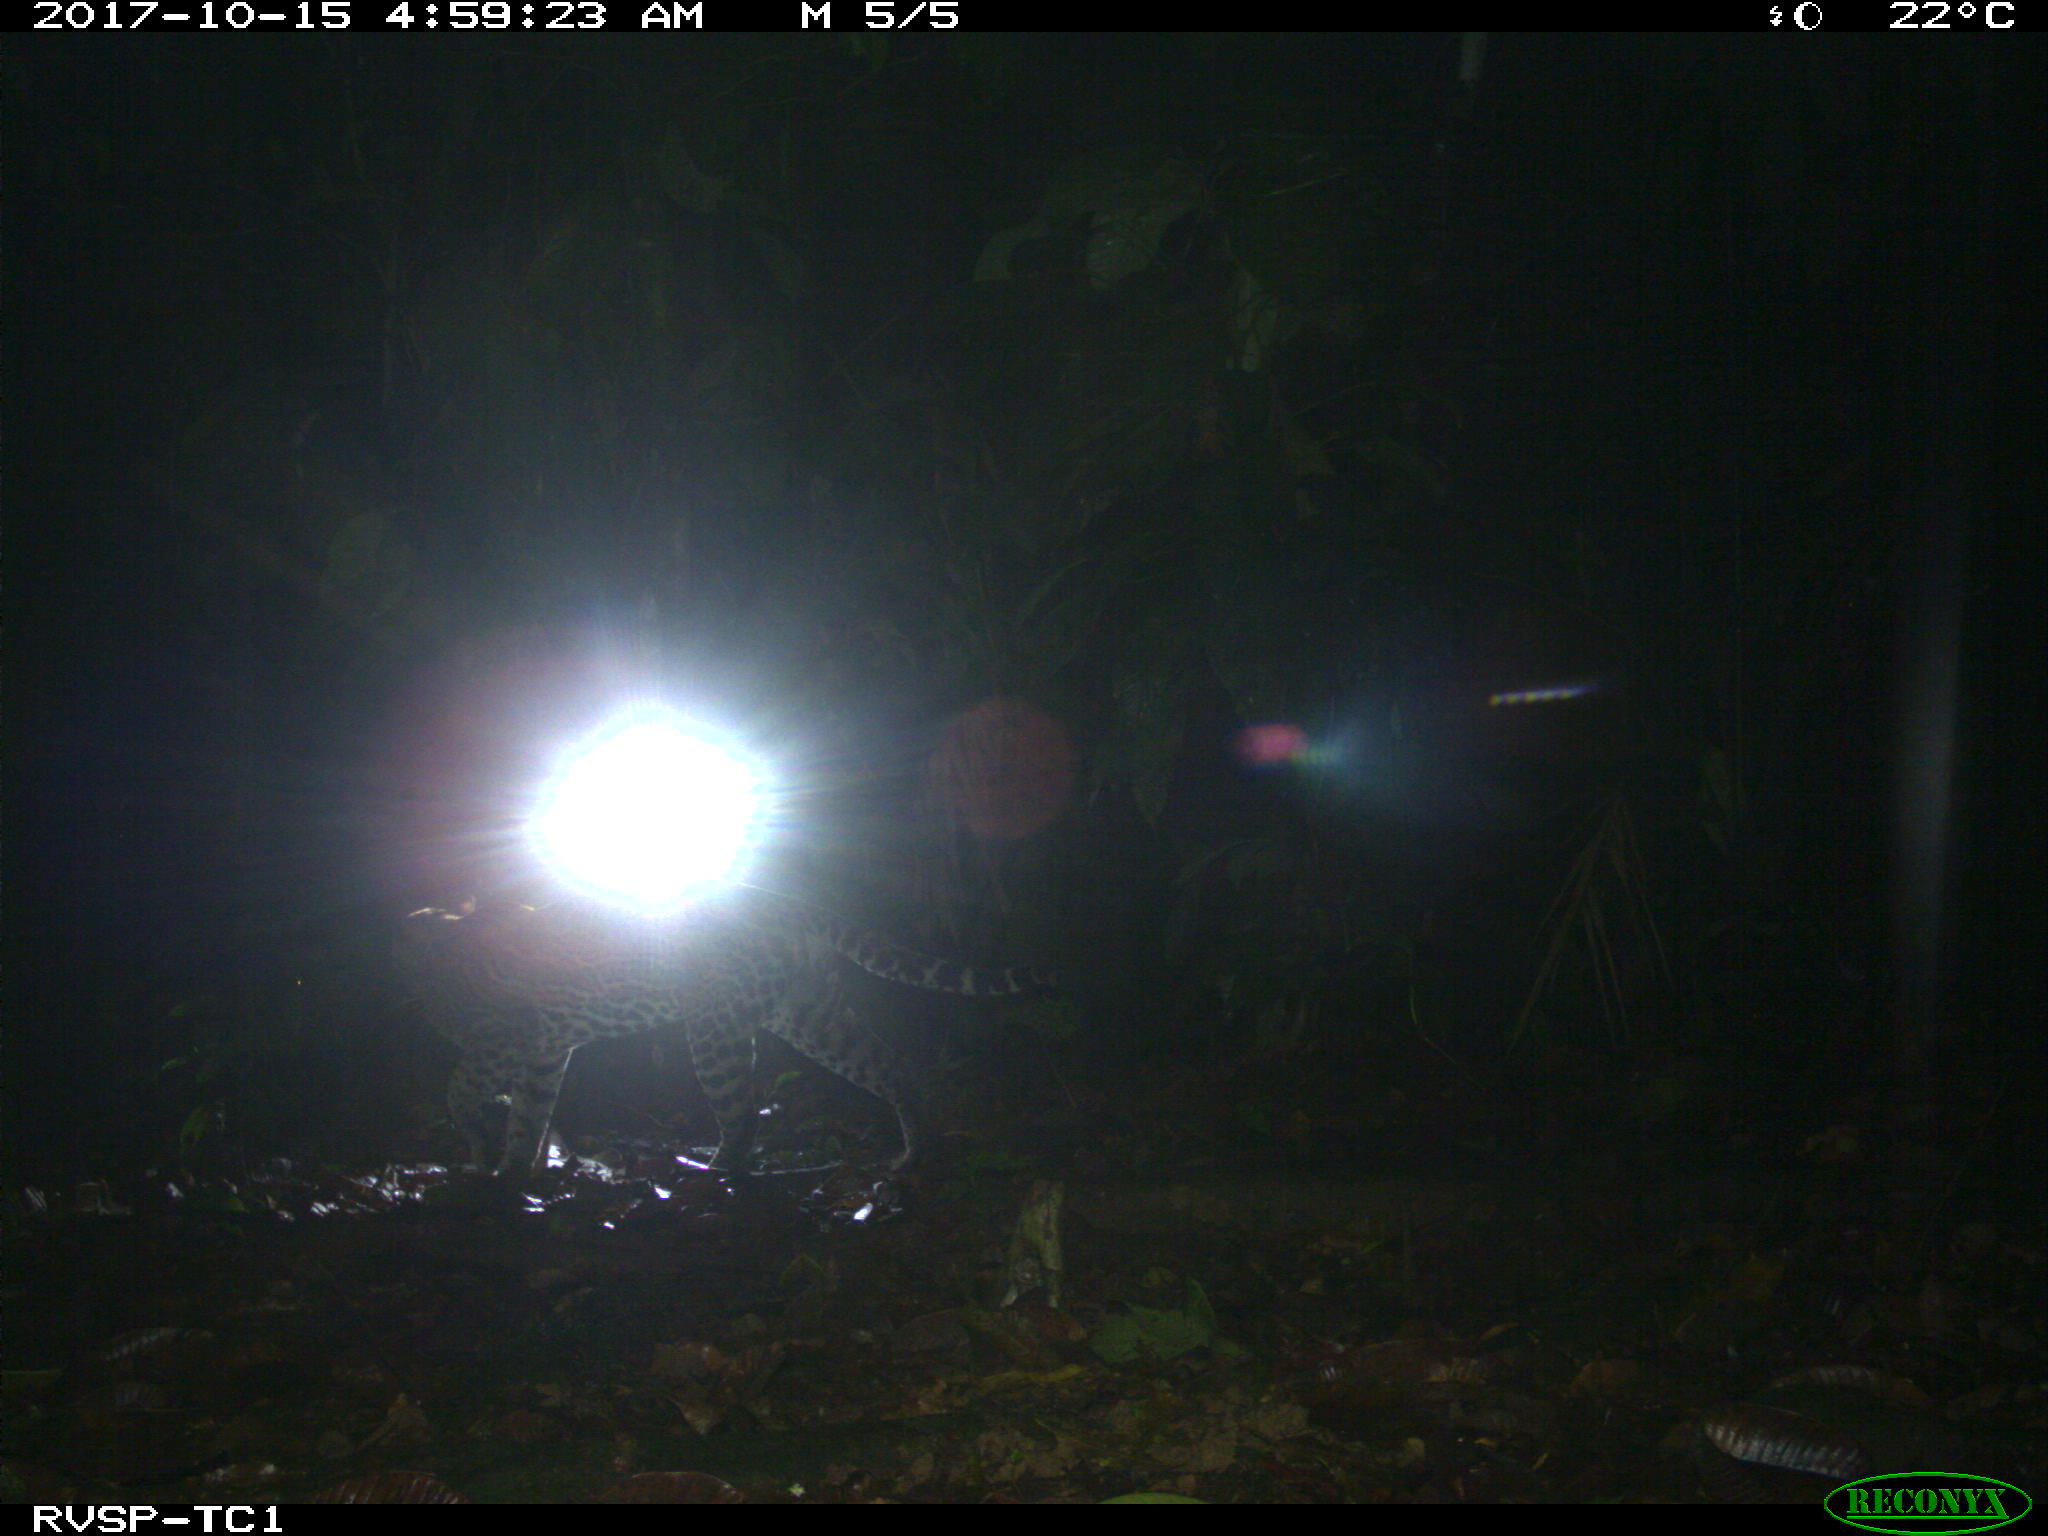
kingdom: Animalia
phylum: Chordata
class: Mammalia
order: Carnivora
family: Felidae
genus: Leopardus
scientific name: Leopardus pardalis
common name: Ocelot
